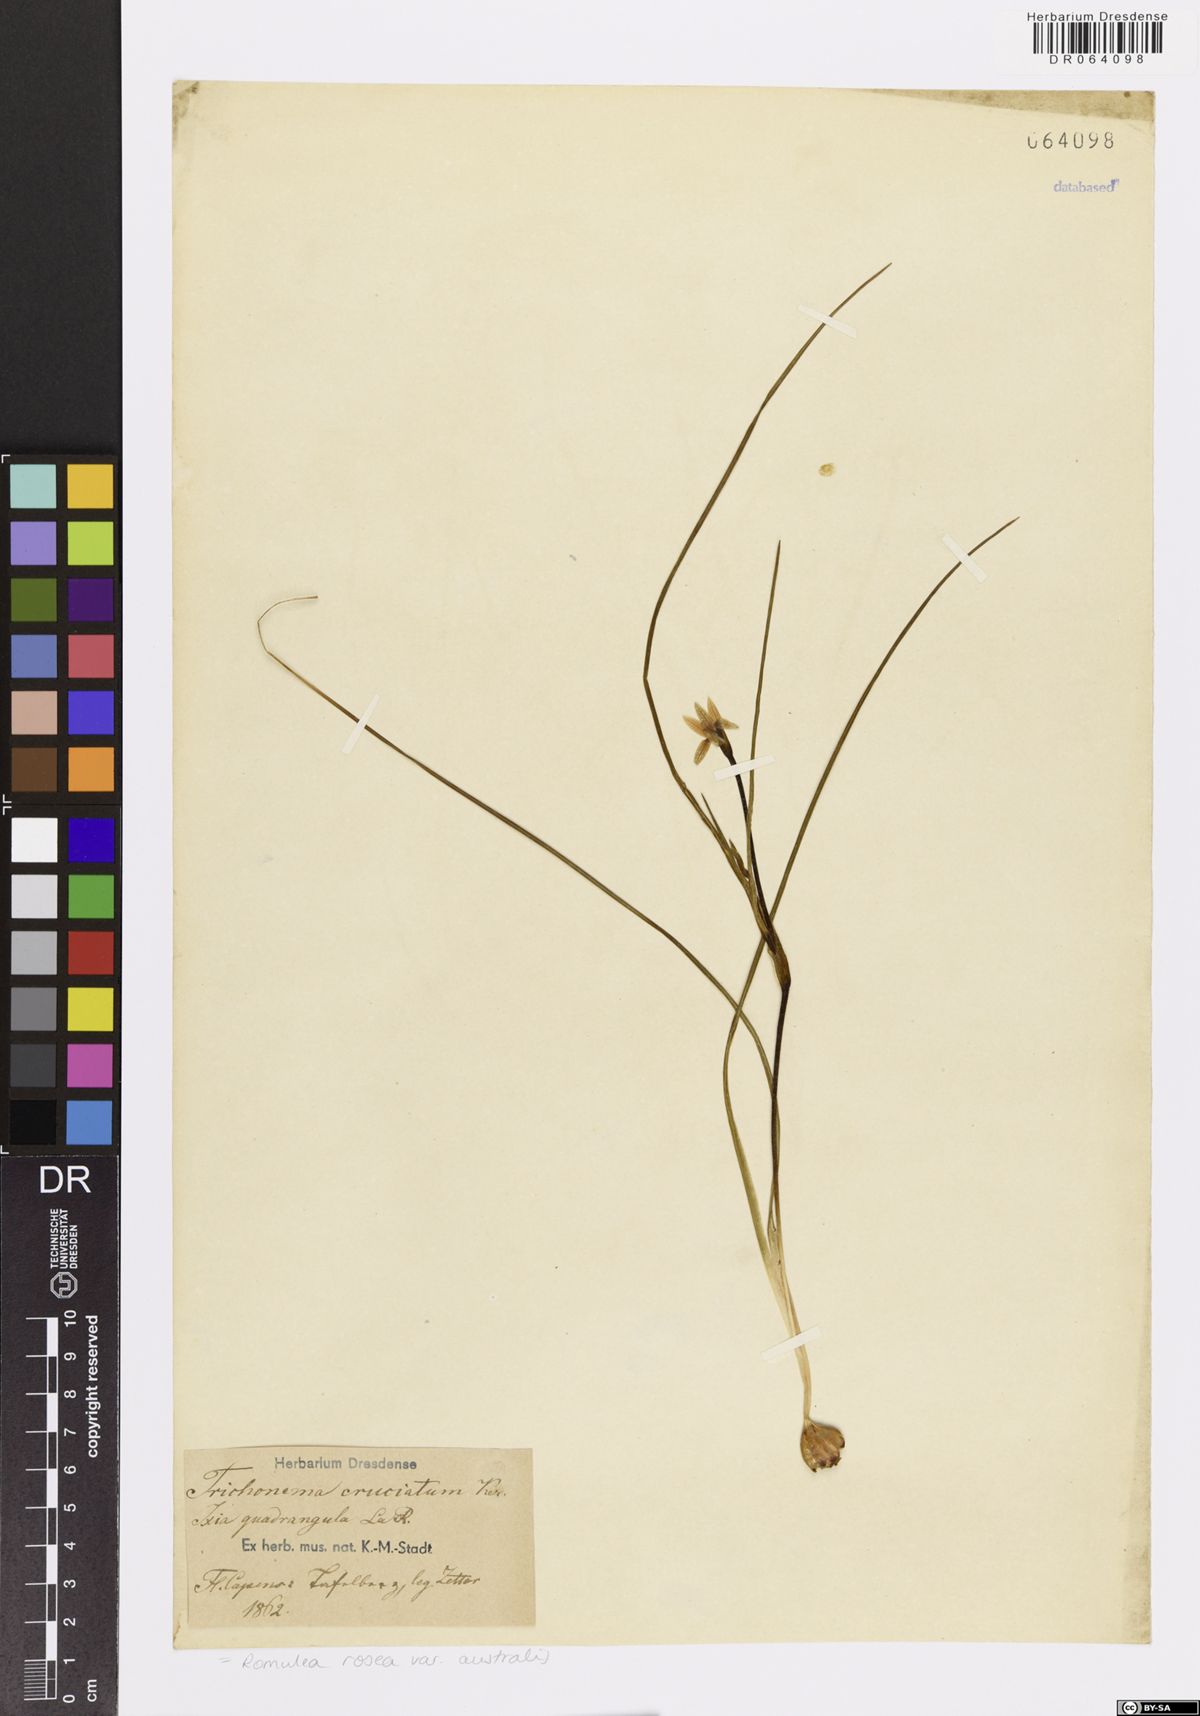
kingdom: Plantae
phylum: Tracheophyta
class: Liliopsida
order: Asparagales
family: Iridaceae
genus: Romulea
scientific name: Romulea rosea
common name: Oniongrass
